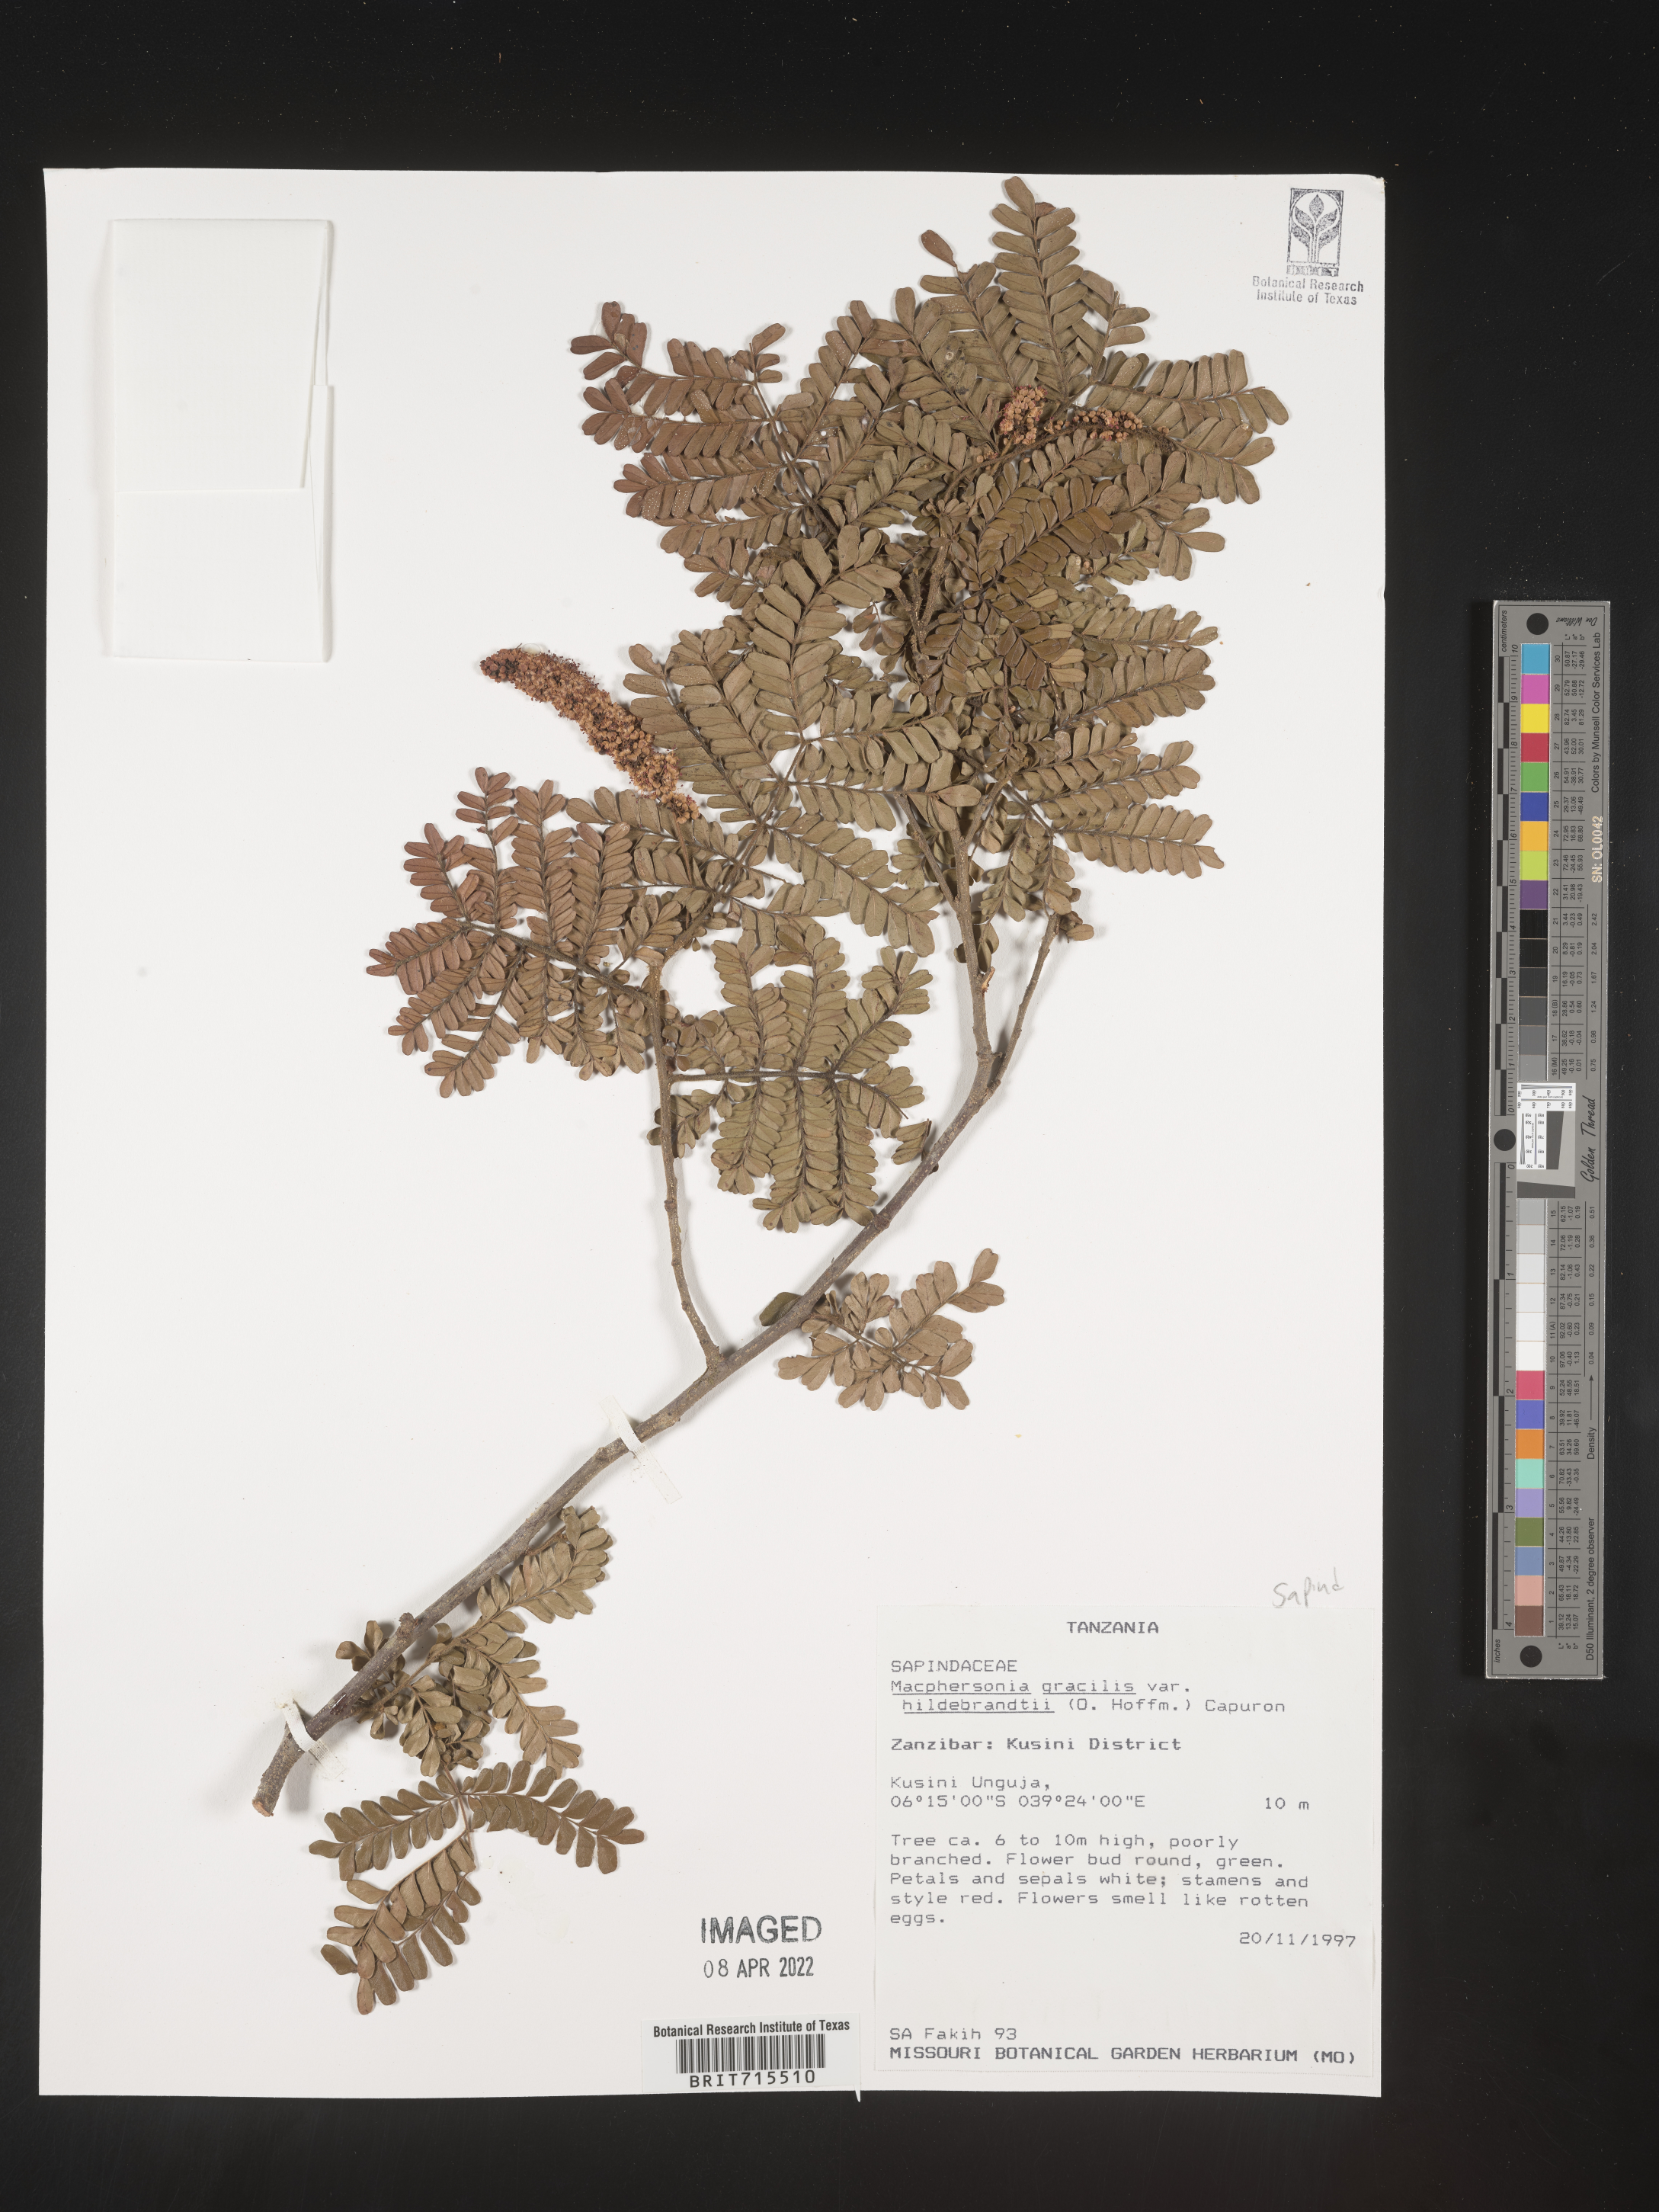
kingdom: Plantae
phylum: Tracheophyta
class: Magnoliopsida
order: Sapindales
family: Sapindaceae
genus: Macphersonia
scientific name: Macphersonia
